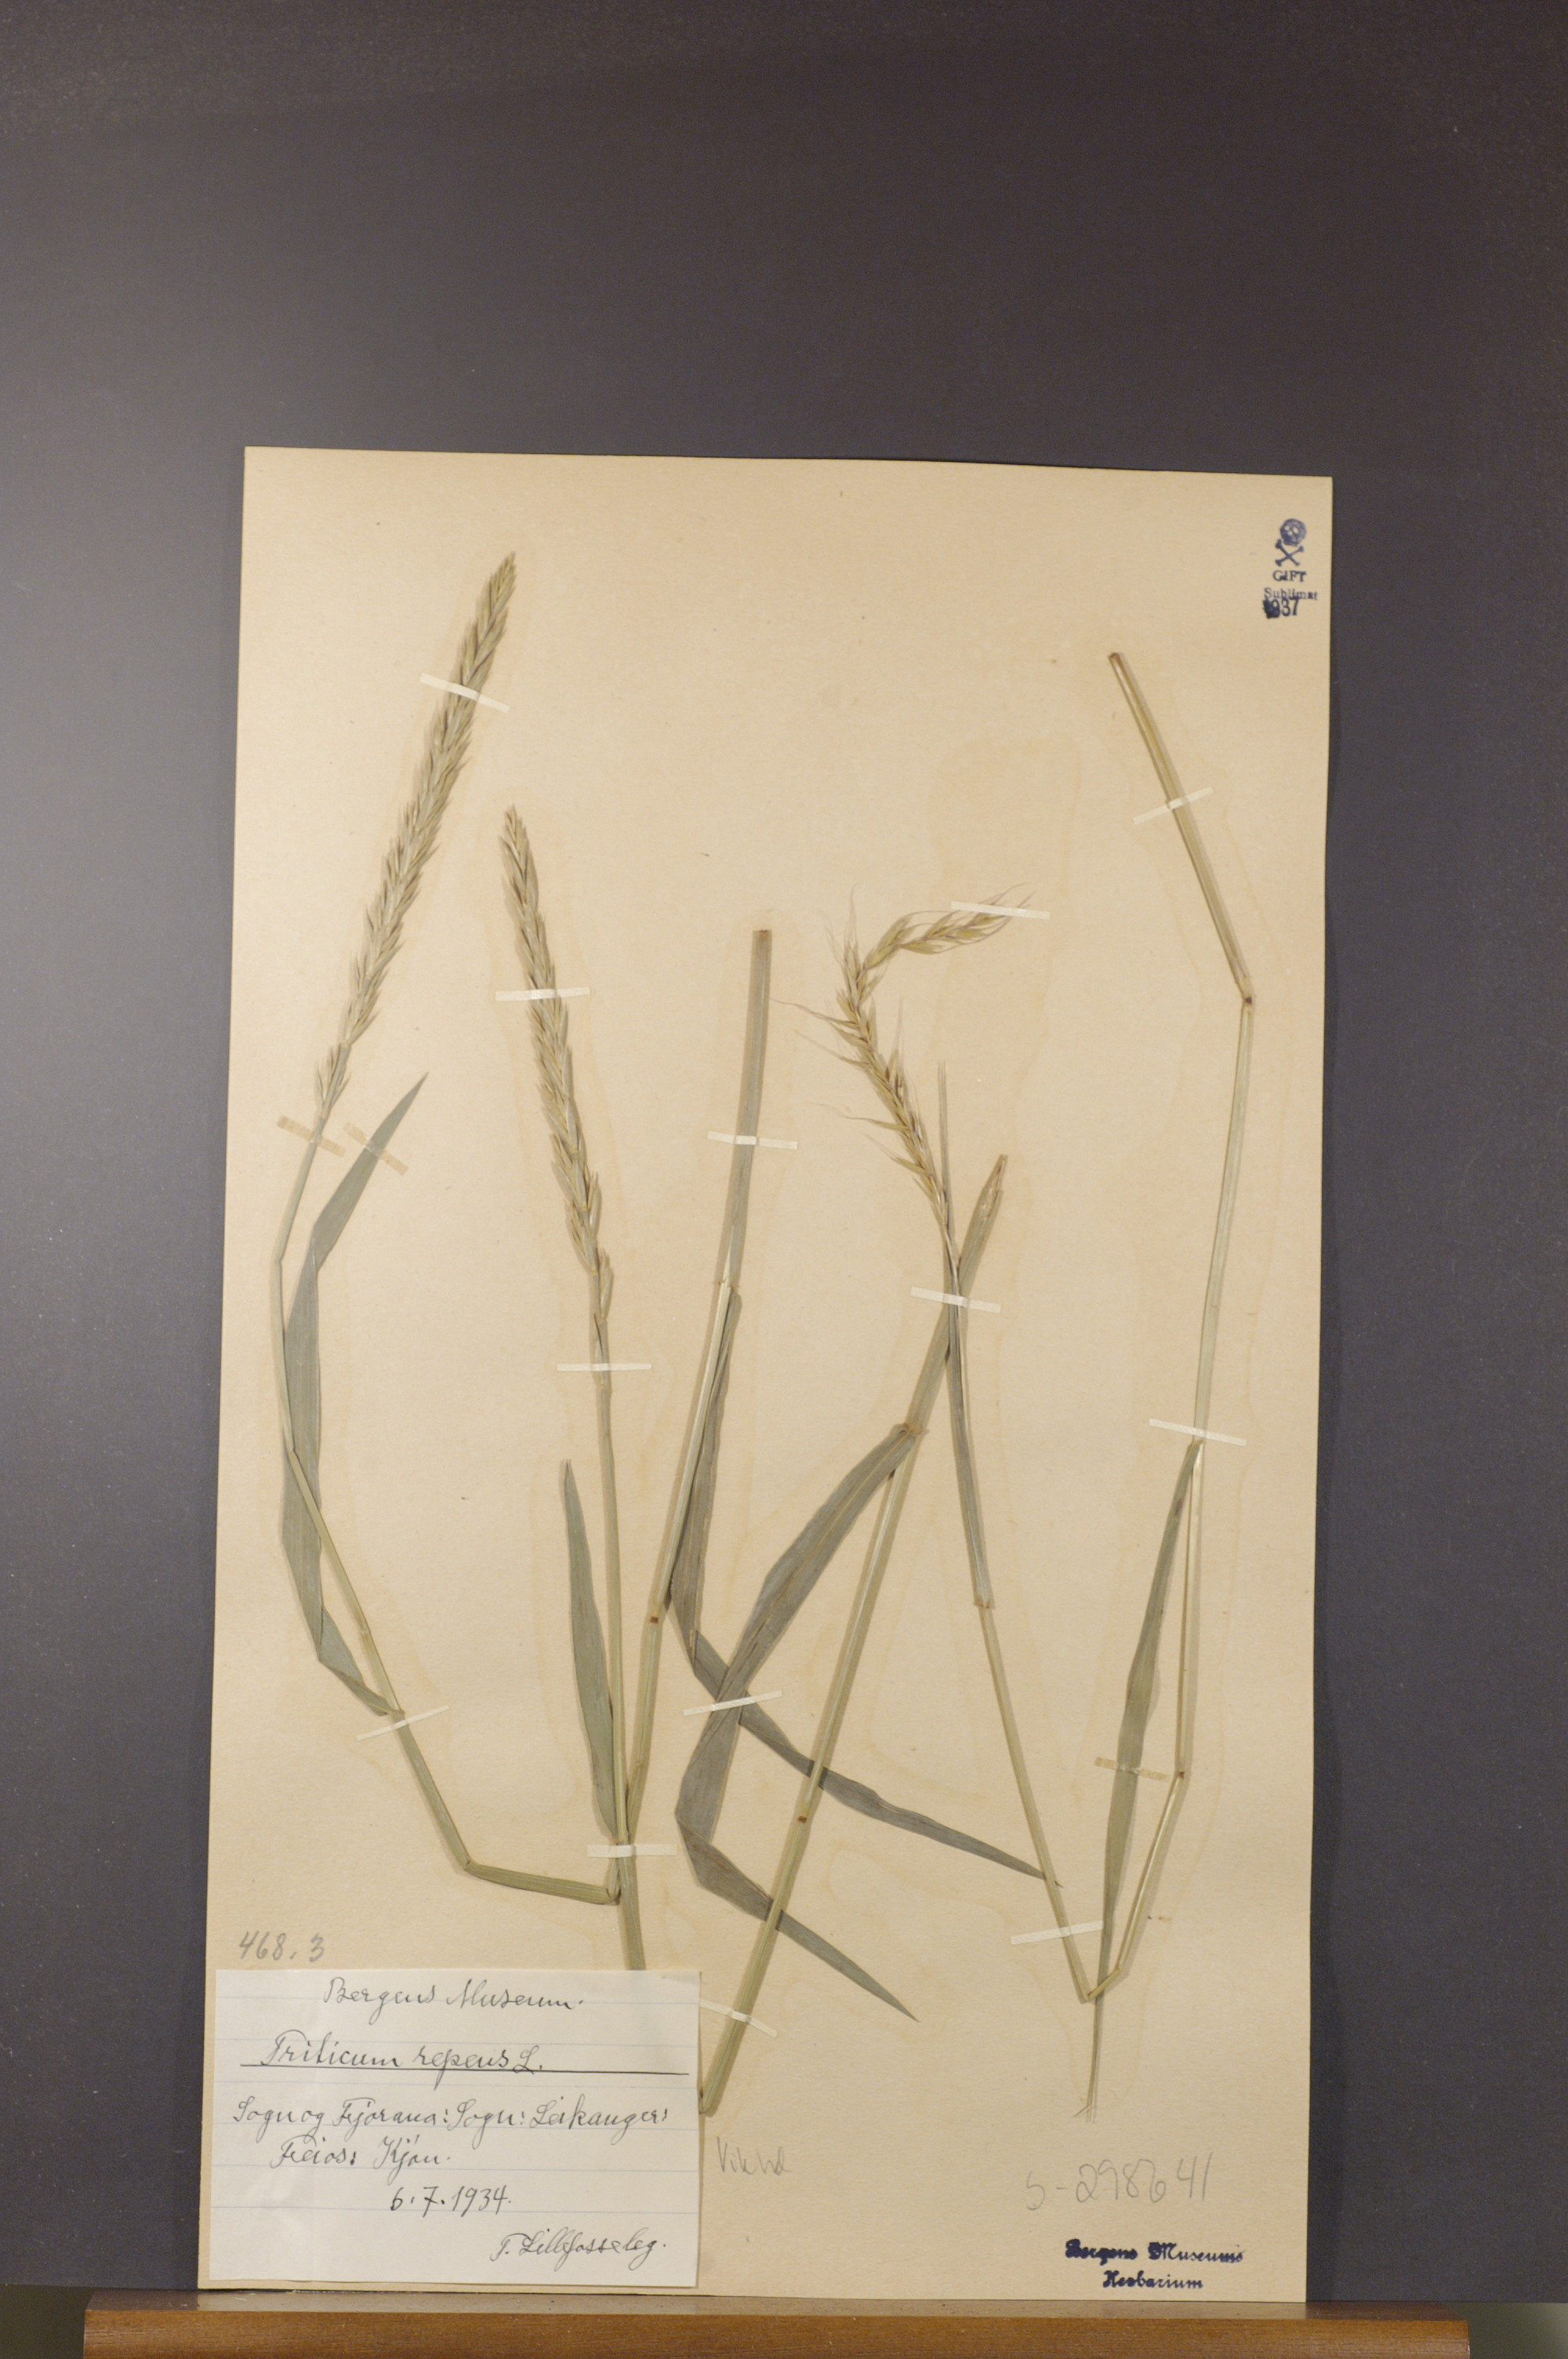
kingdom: Plantae
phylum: Tracheophyta
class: Liliopsida
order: Poales
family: Poaceae
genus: Elymus
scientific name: Elymus repens
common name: Quackgrass
